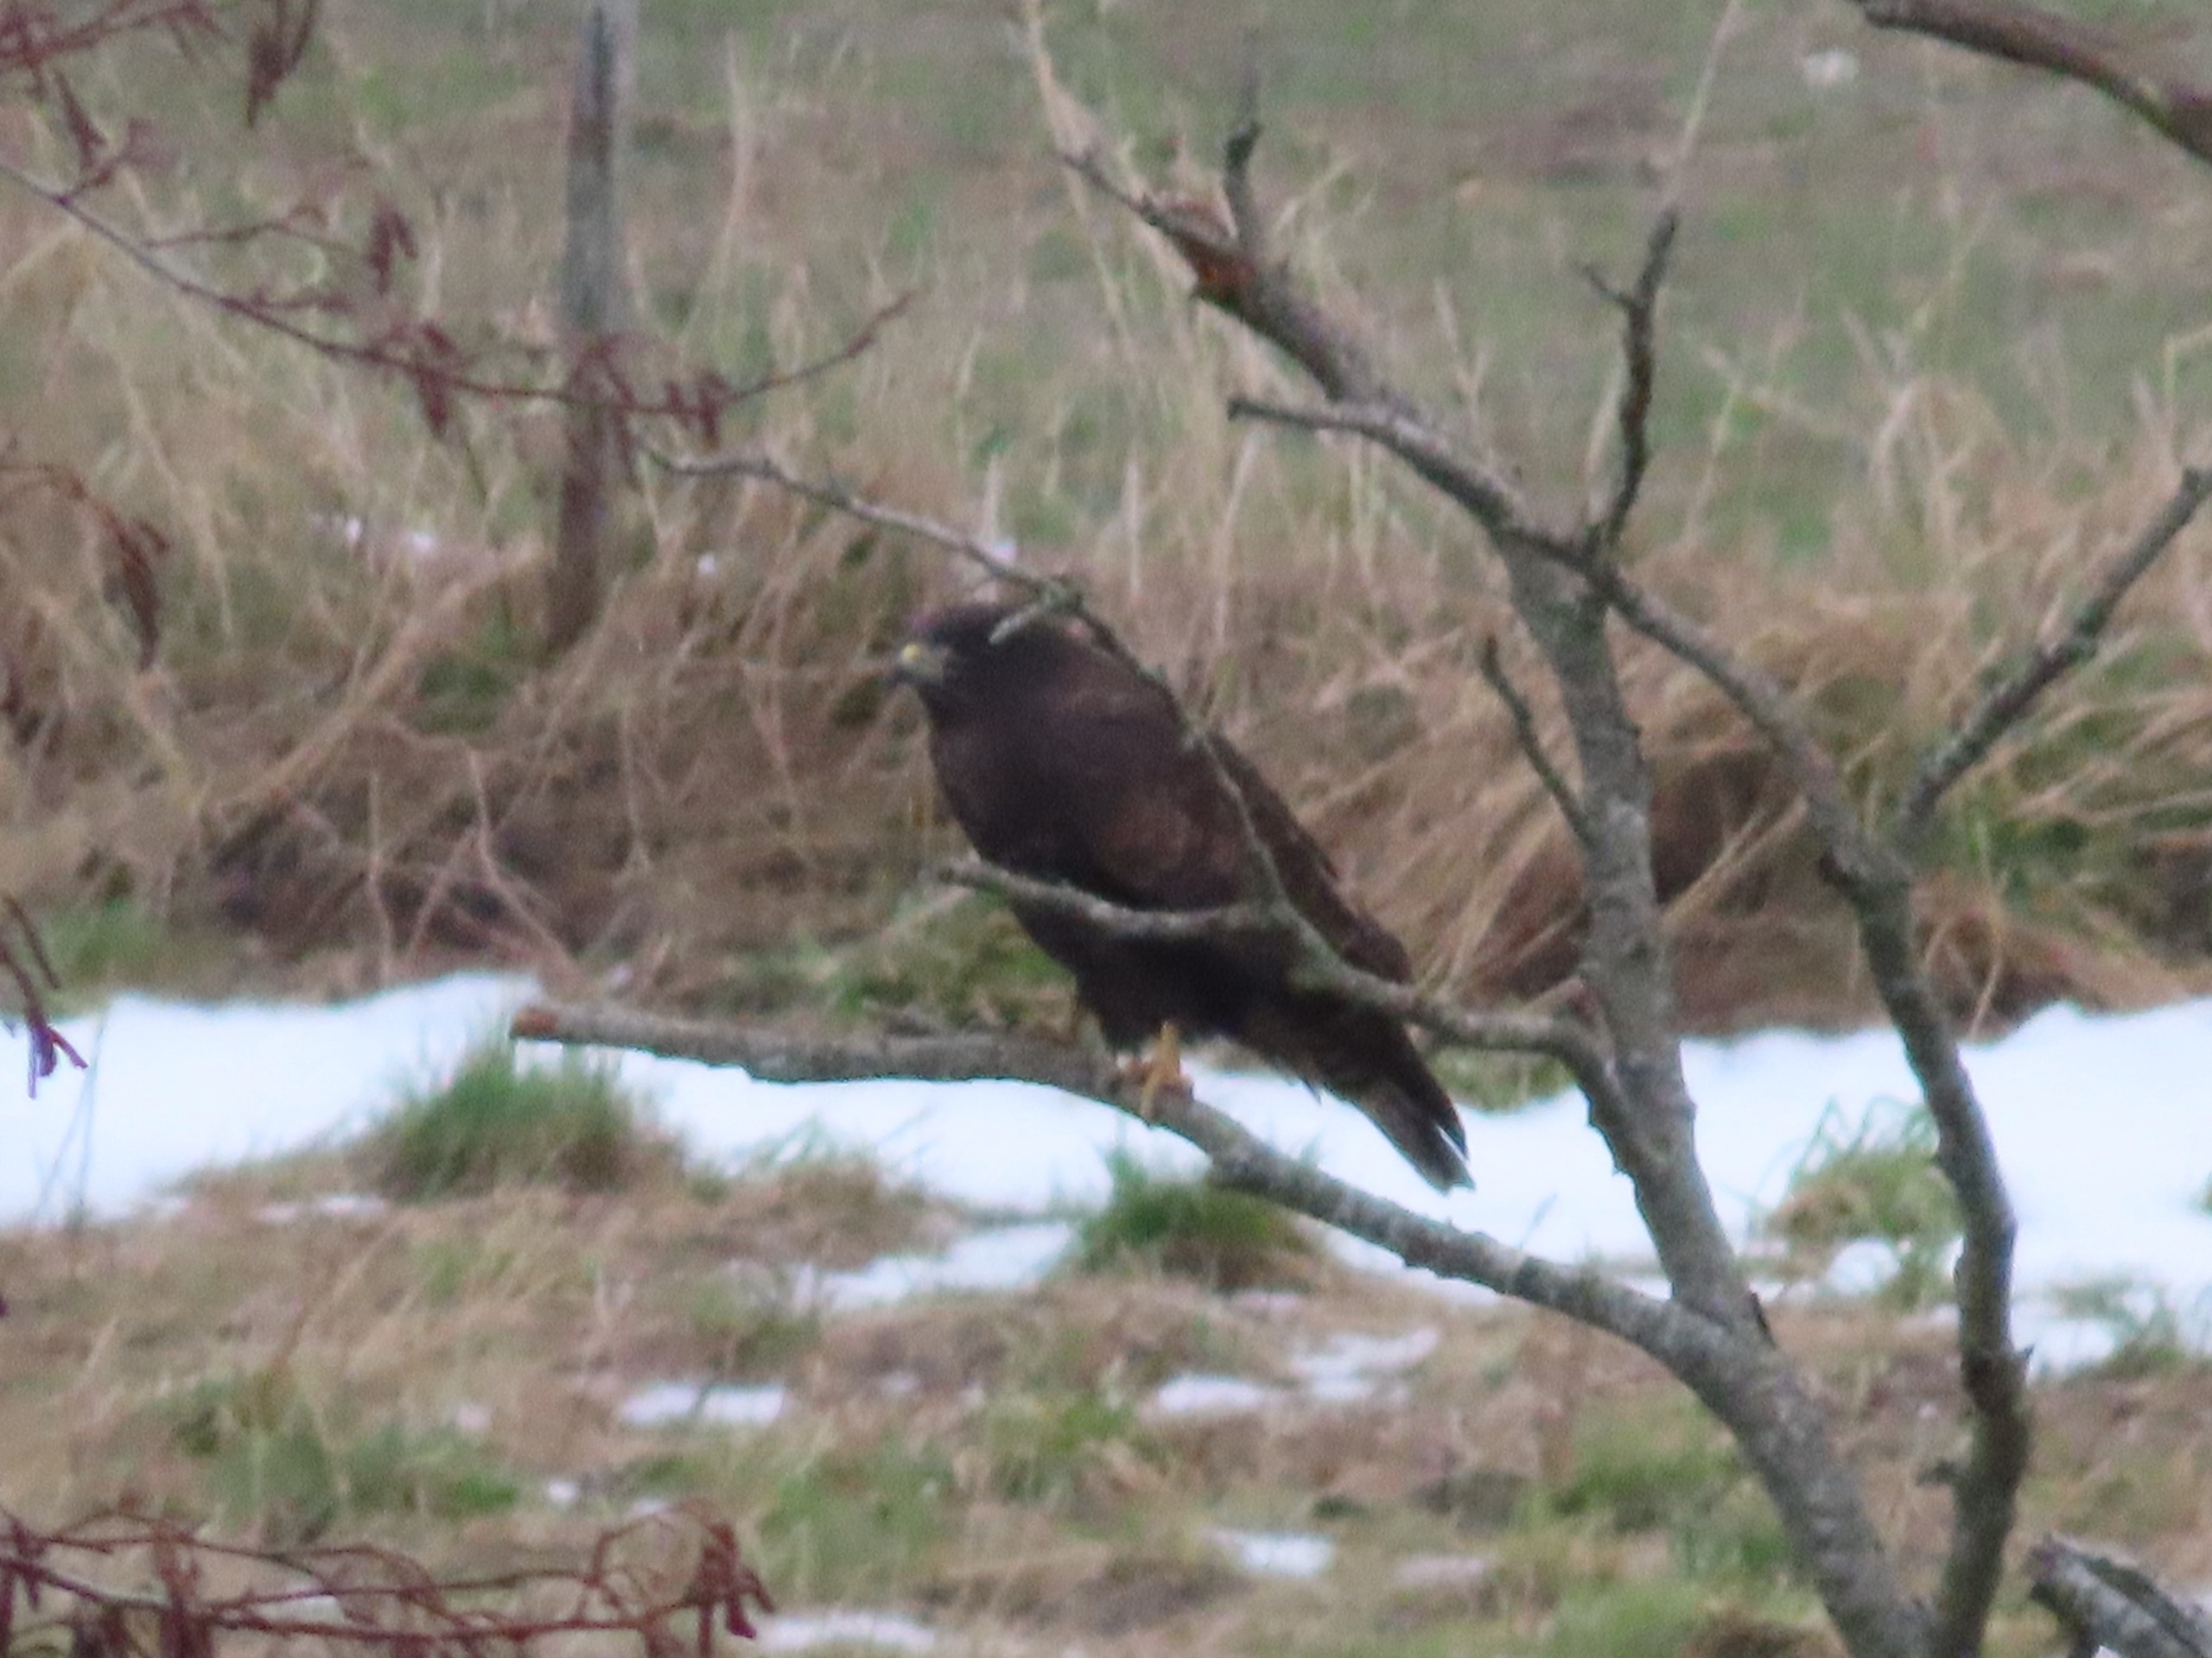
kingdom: Animalia
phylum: Chordata
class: Aves
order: Accipitriformes
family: Accipitridae
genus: Buteo
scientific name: Buteo buteo
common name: Musvåge
